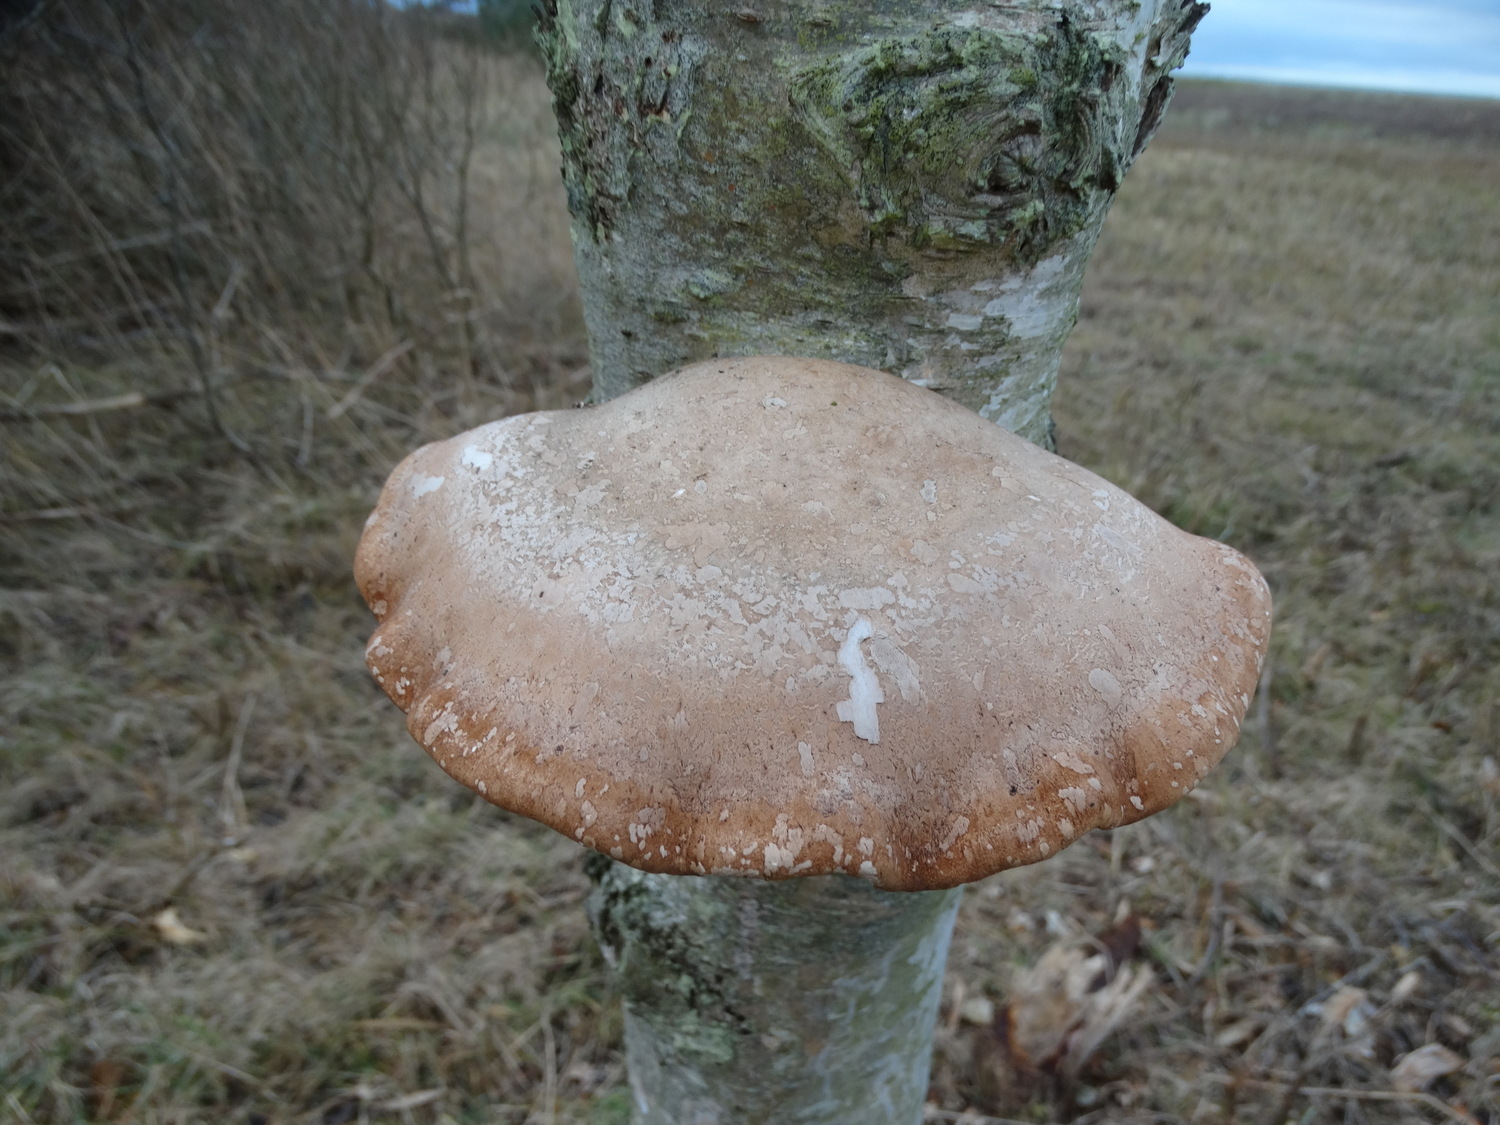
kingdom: Fungi
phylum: Basidiomycota
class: Agaricomycetes
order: Polyporales
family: Fomitopsidaceae
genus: Fomitopsis
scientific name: Fomitopsis betulina
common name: birkeporesvamp
